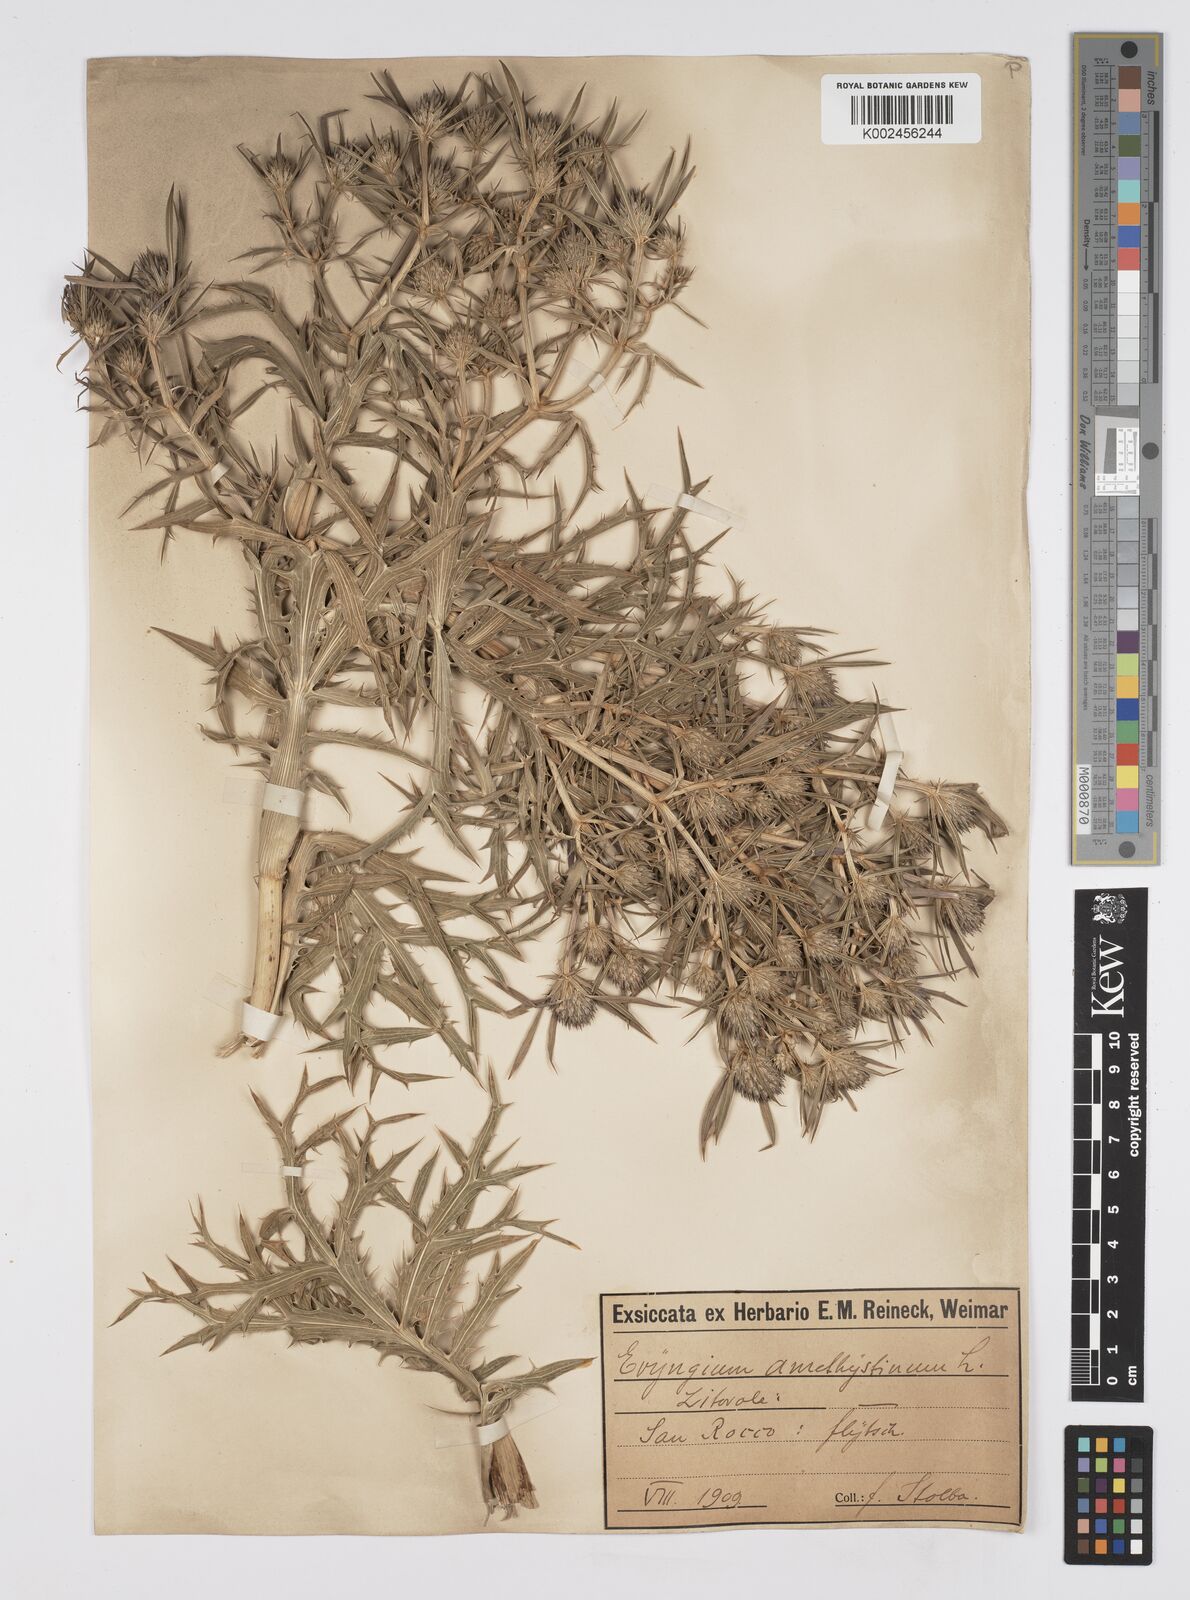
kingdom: Plantae
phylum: Tracheophyta
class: Magnoliopsida
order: Apiales
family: Apiaceae
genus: Eryngium
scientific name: Eryngium amethystinum
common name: Amethyst eryngo
